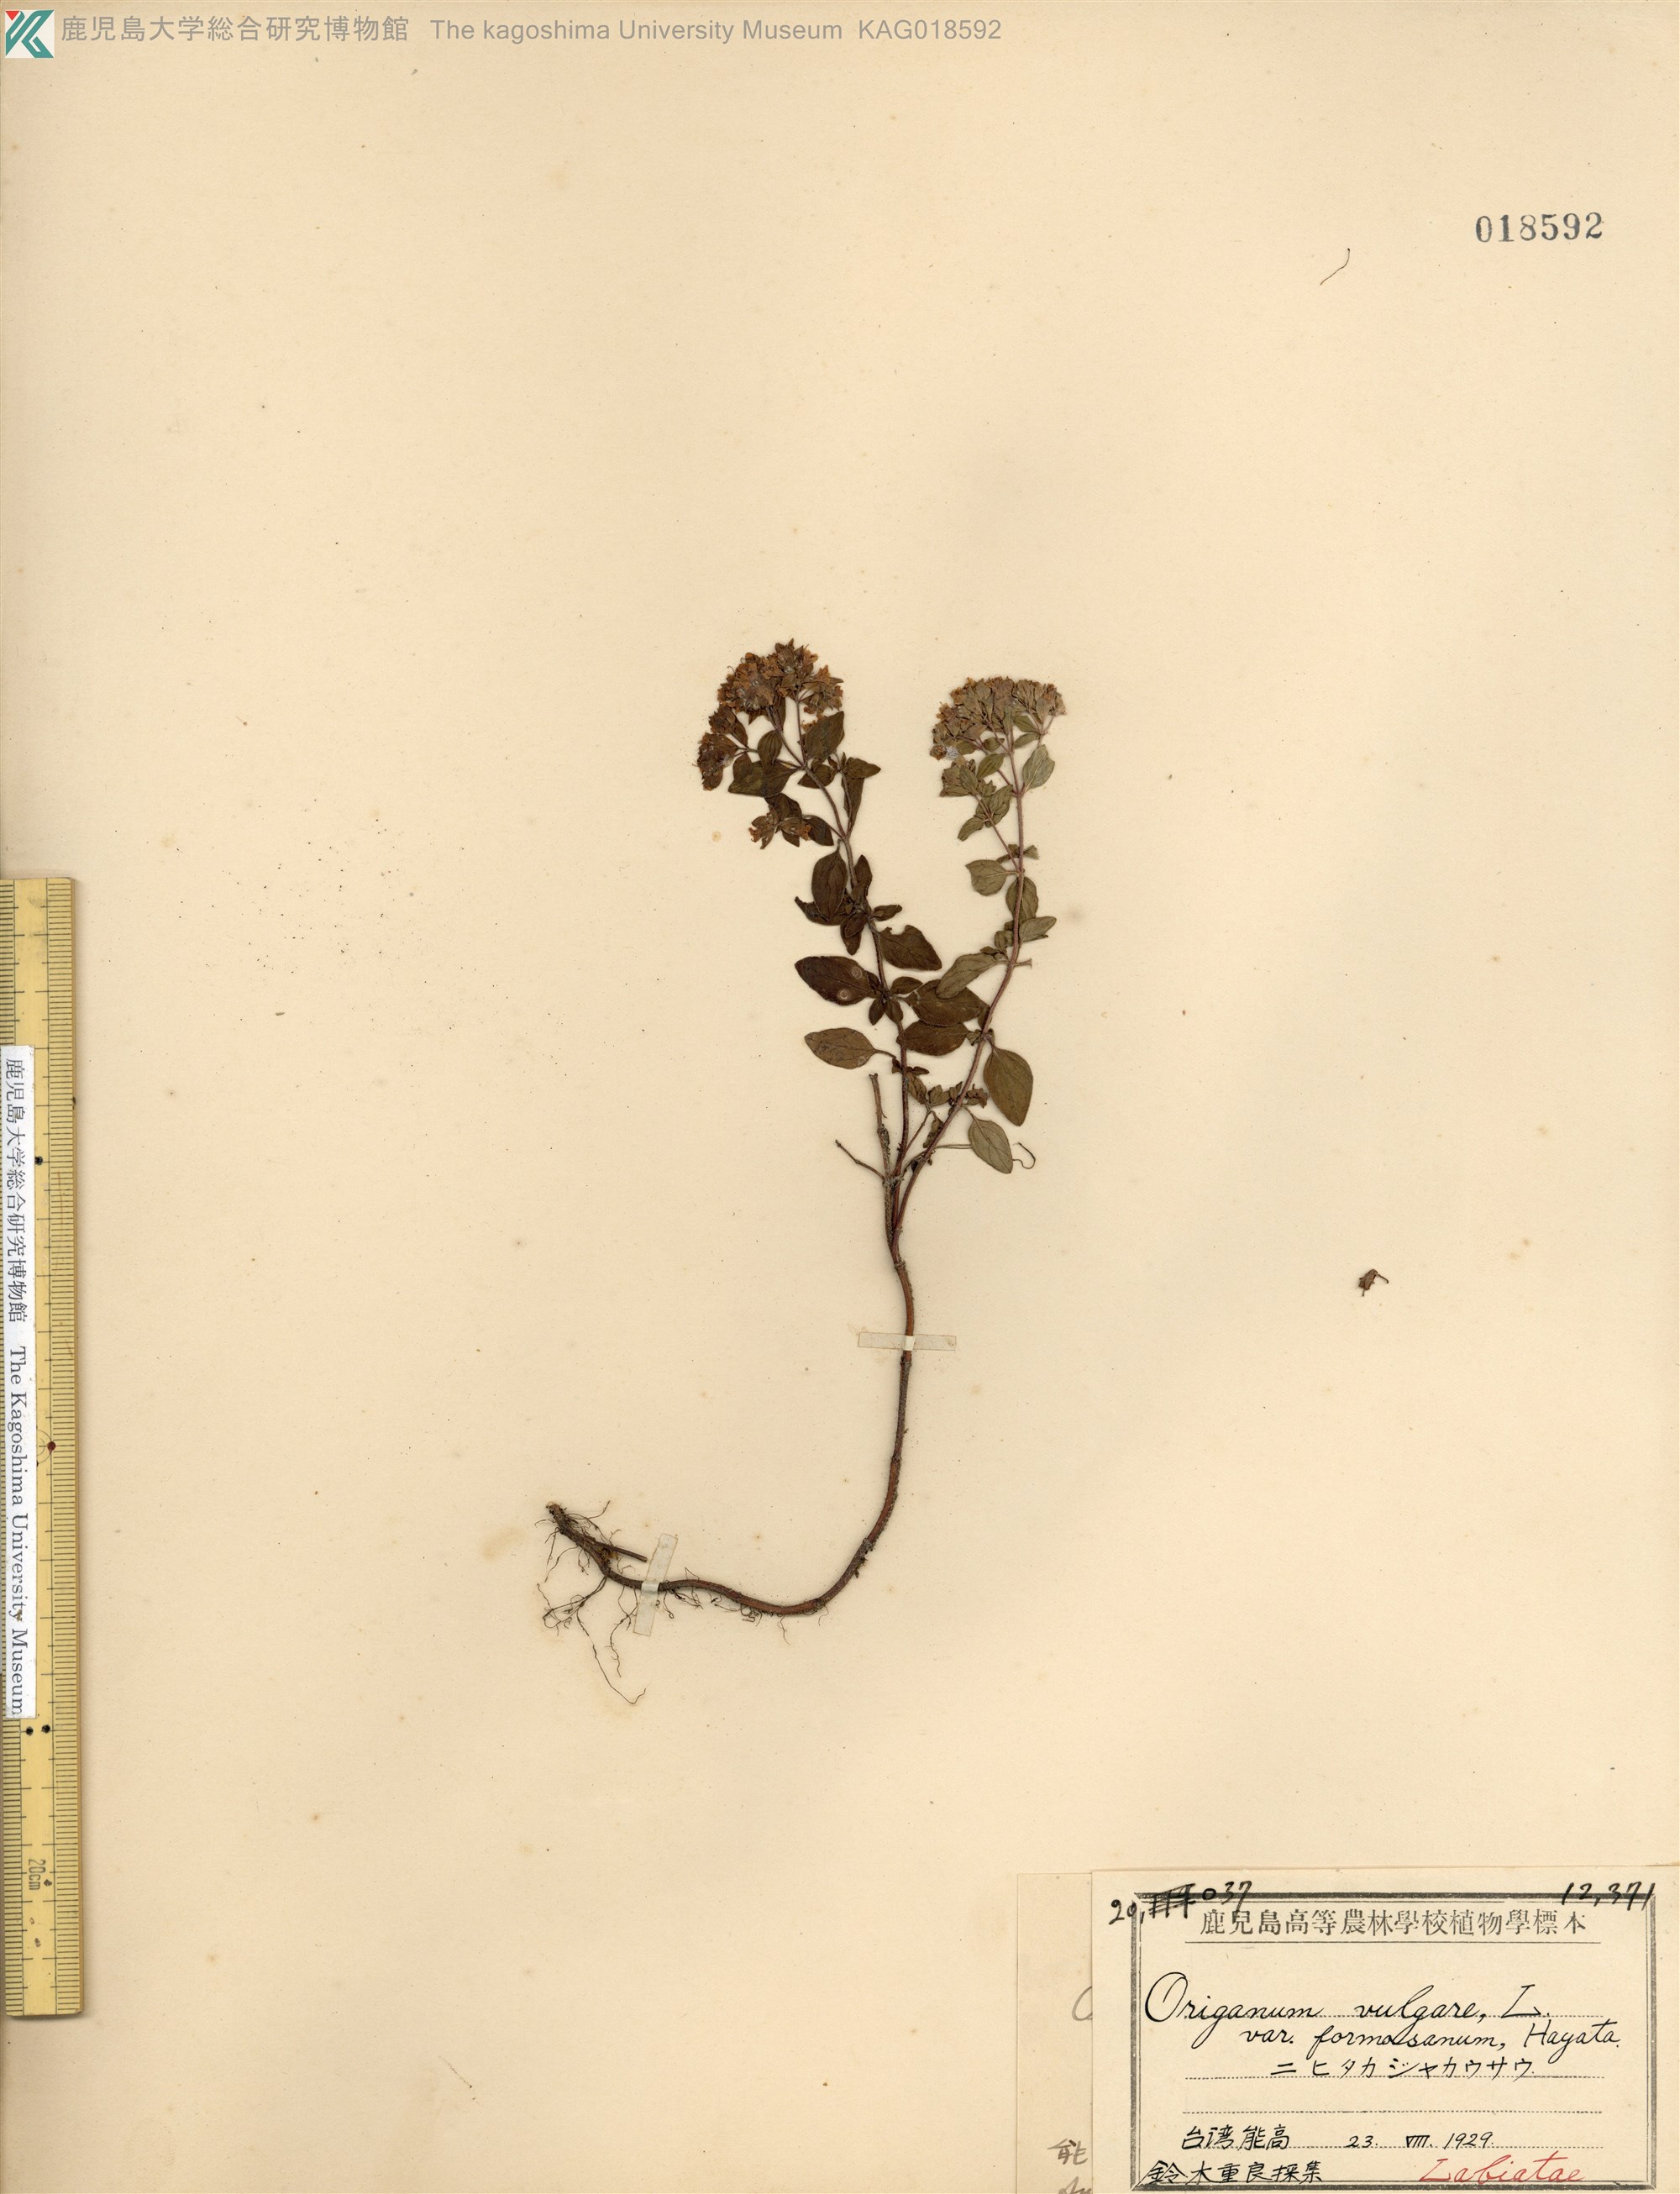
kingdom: Plantae
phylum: Tracheophyta
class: Magnoliopsida
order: Lamiales
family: Lamiaceae
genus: Origanum
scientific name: Origanum vulgare
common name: Wild marjoram
